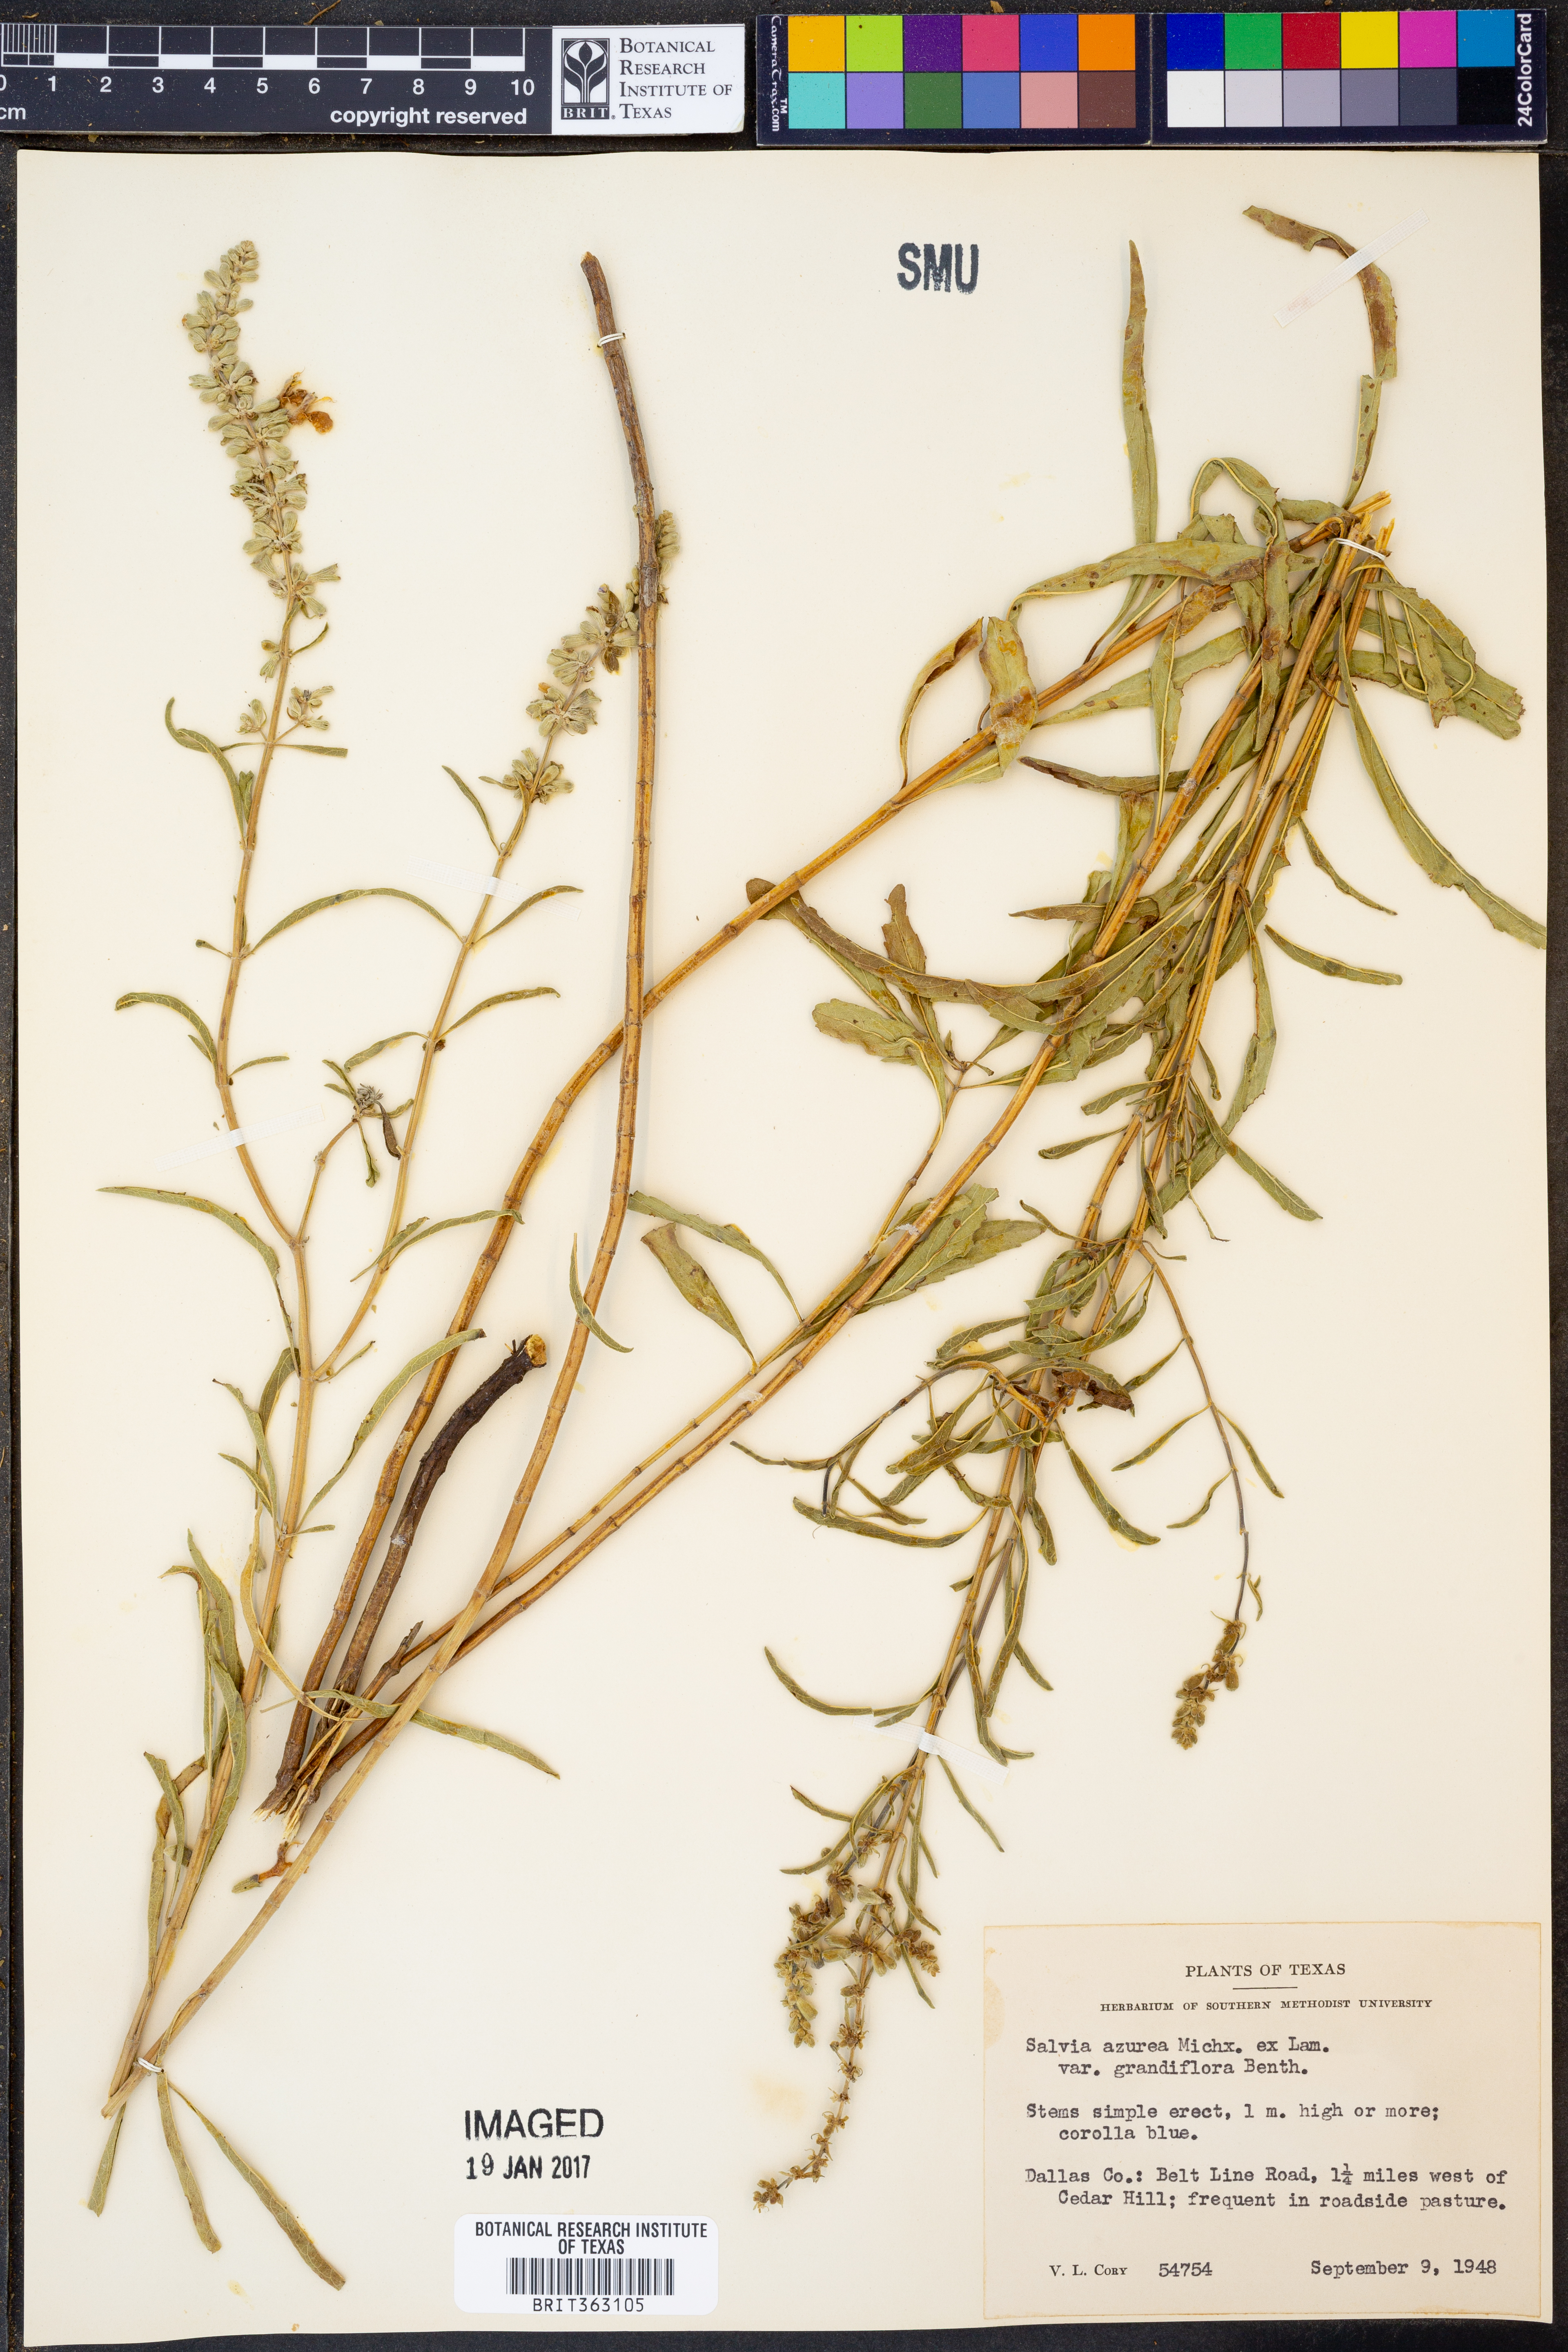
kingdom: Plantae
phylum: Tracheophyta
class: Magnoliopsida
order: Lamiales
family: Lamiaceae
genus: Salvia
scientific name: Salvia azurea
